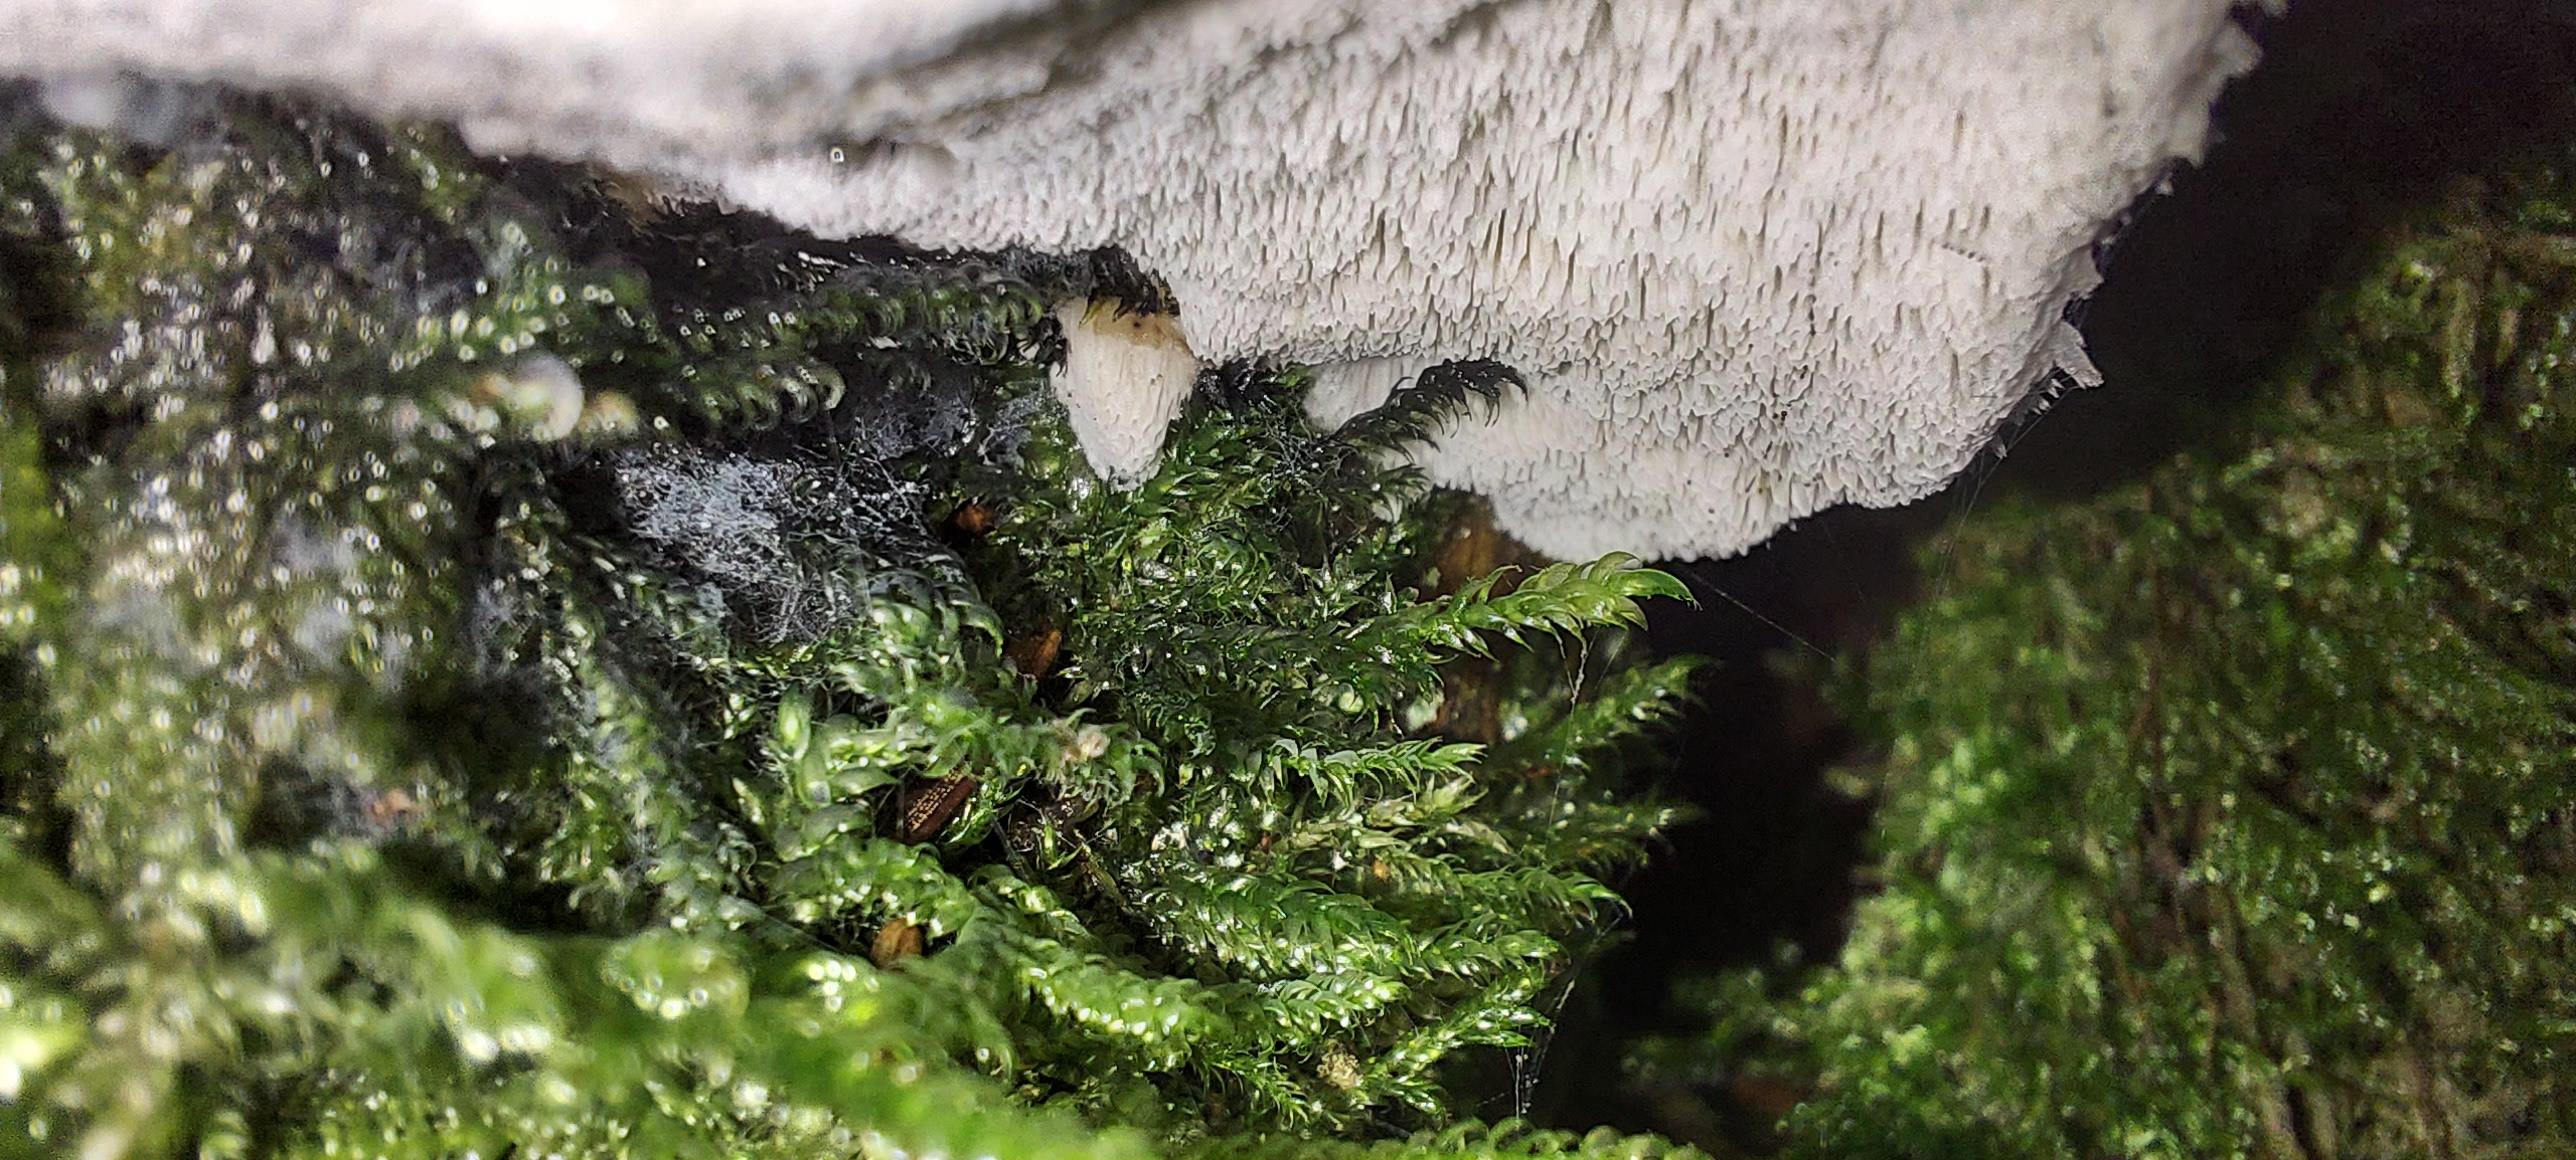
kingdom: Fungi
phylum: Basidiomycota
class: Agaricomycetes
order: Polyporales
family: Dacryobolaceae
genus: Postia
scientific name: Postia
